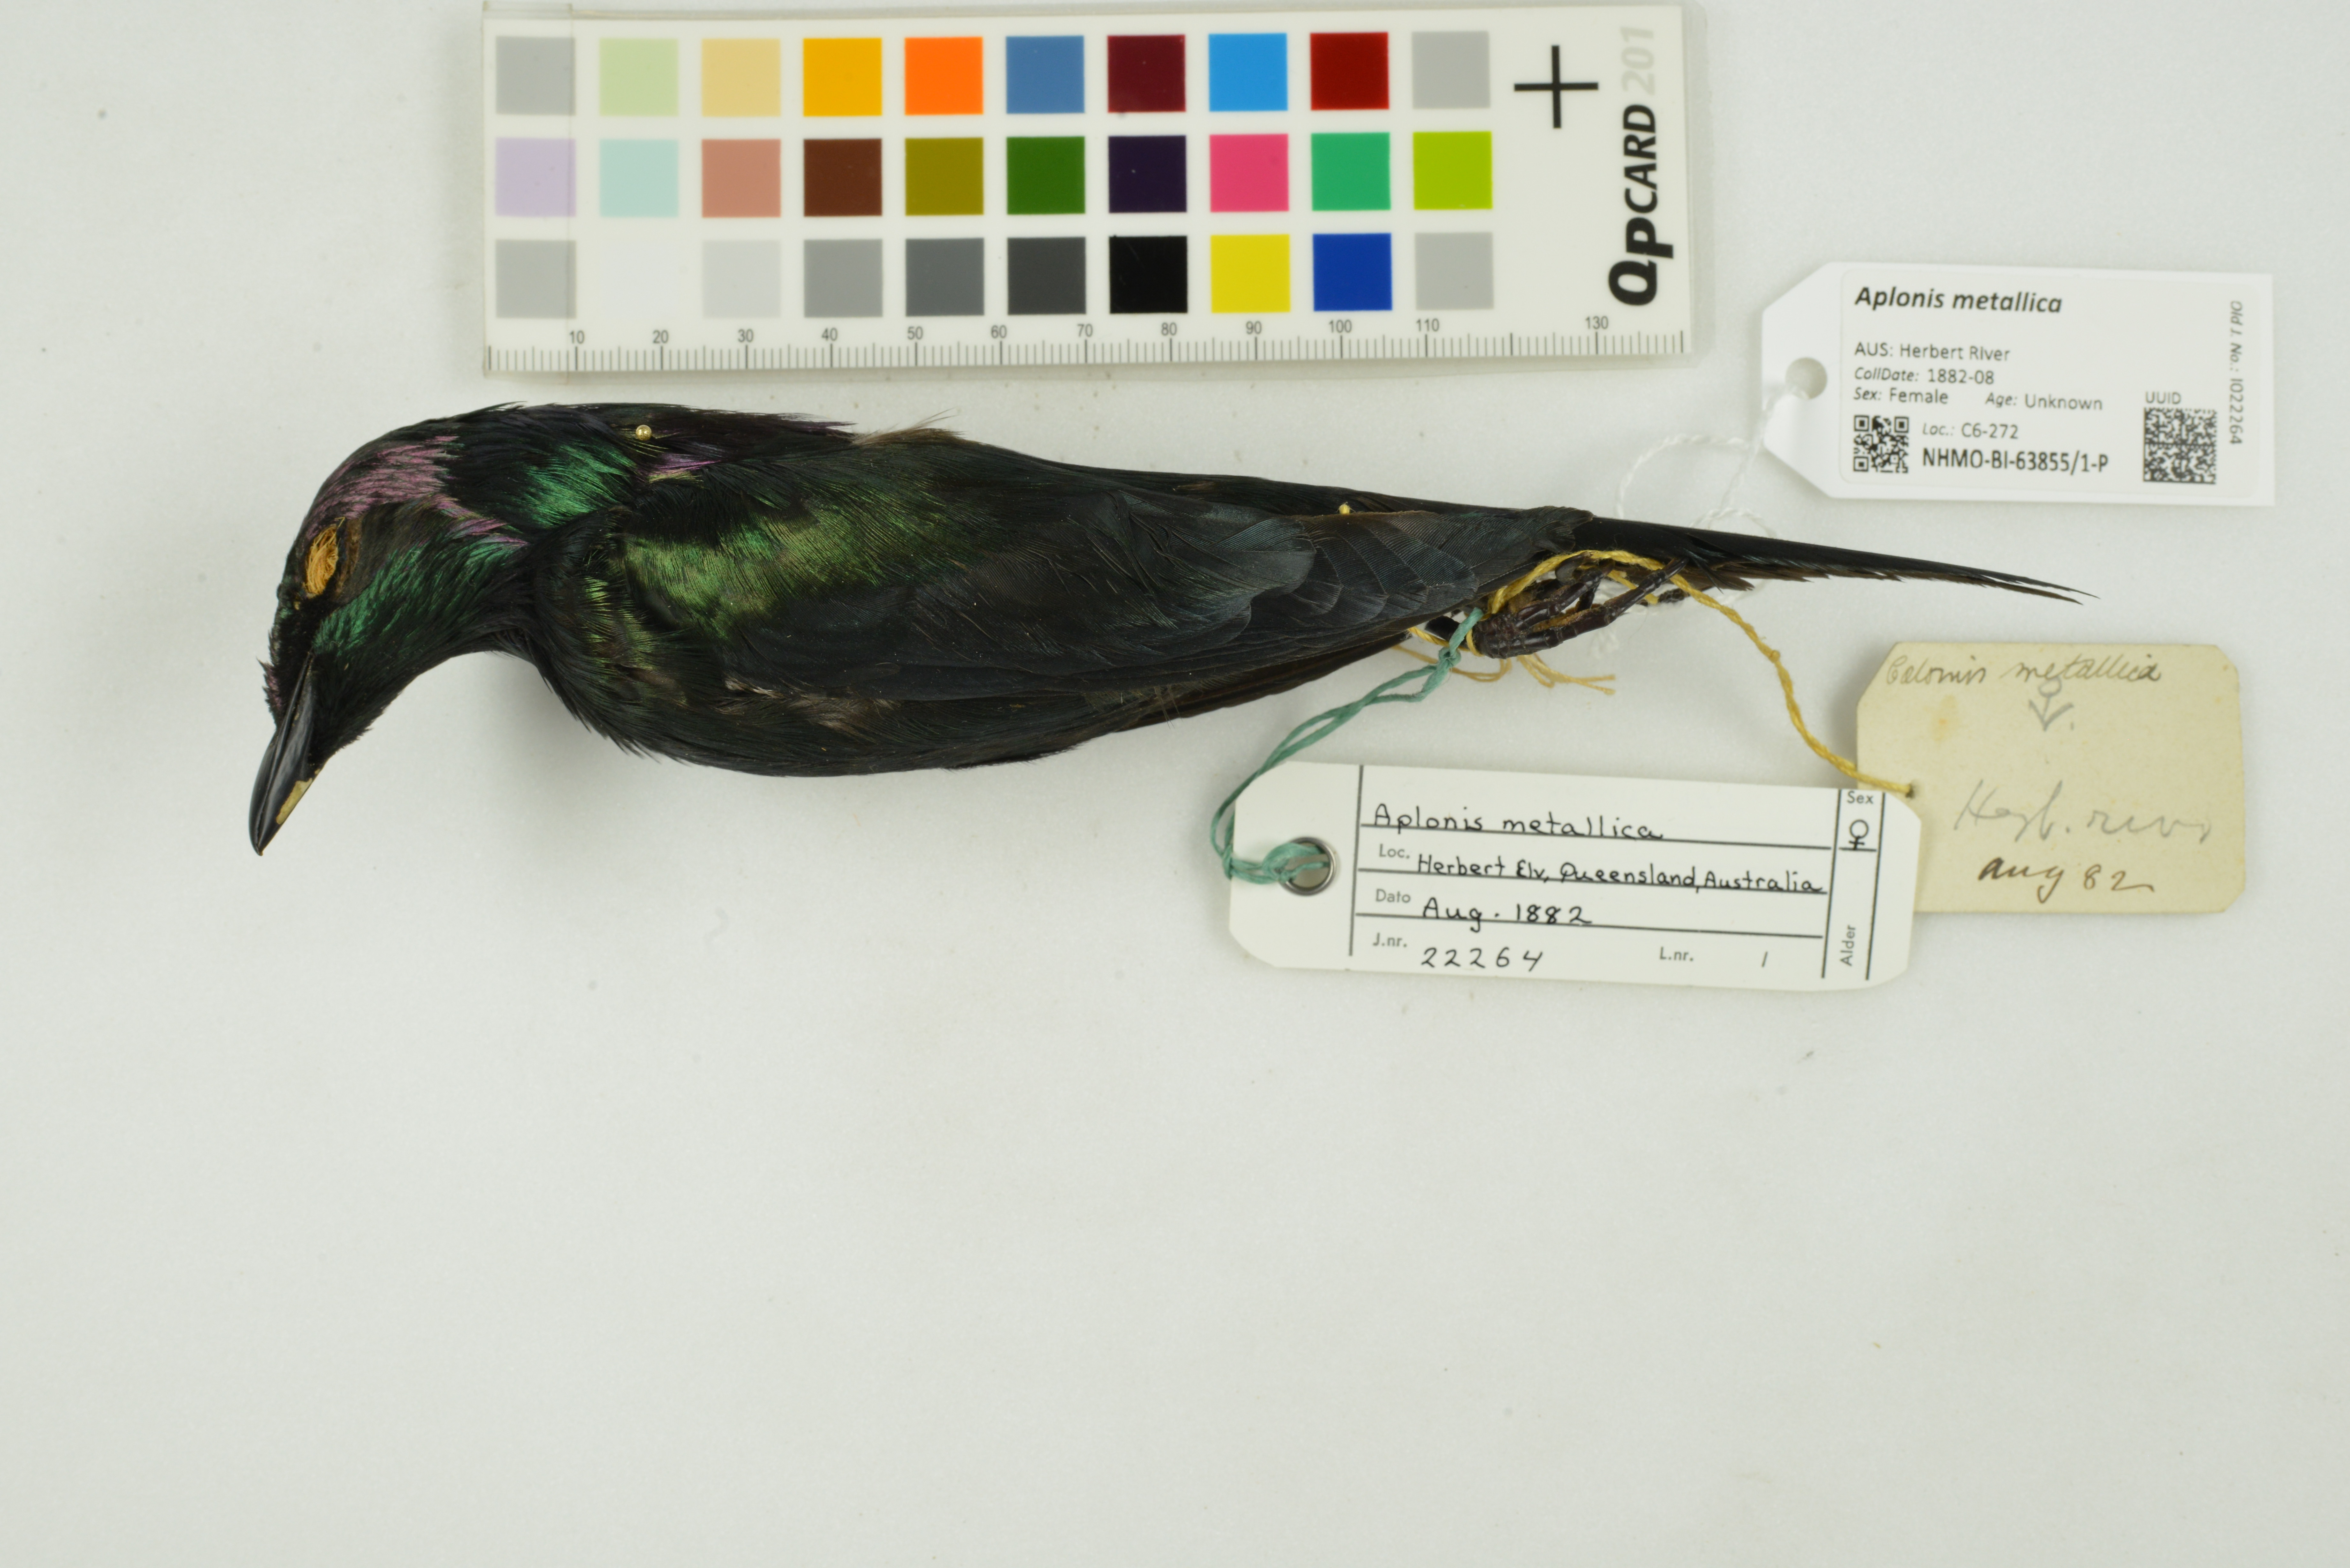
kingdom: Animalia
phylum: Chordata
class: Aves
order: Passeriformes
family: Sturnidae
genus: Aplonis
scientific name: Aplonis metallica
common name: Metallic starling
